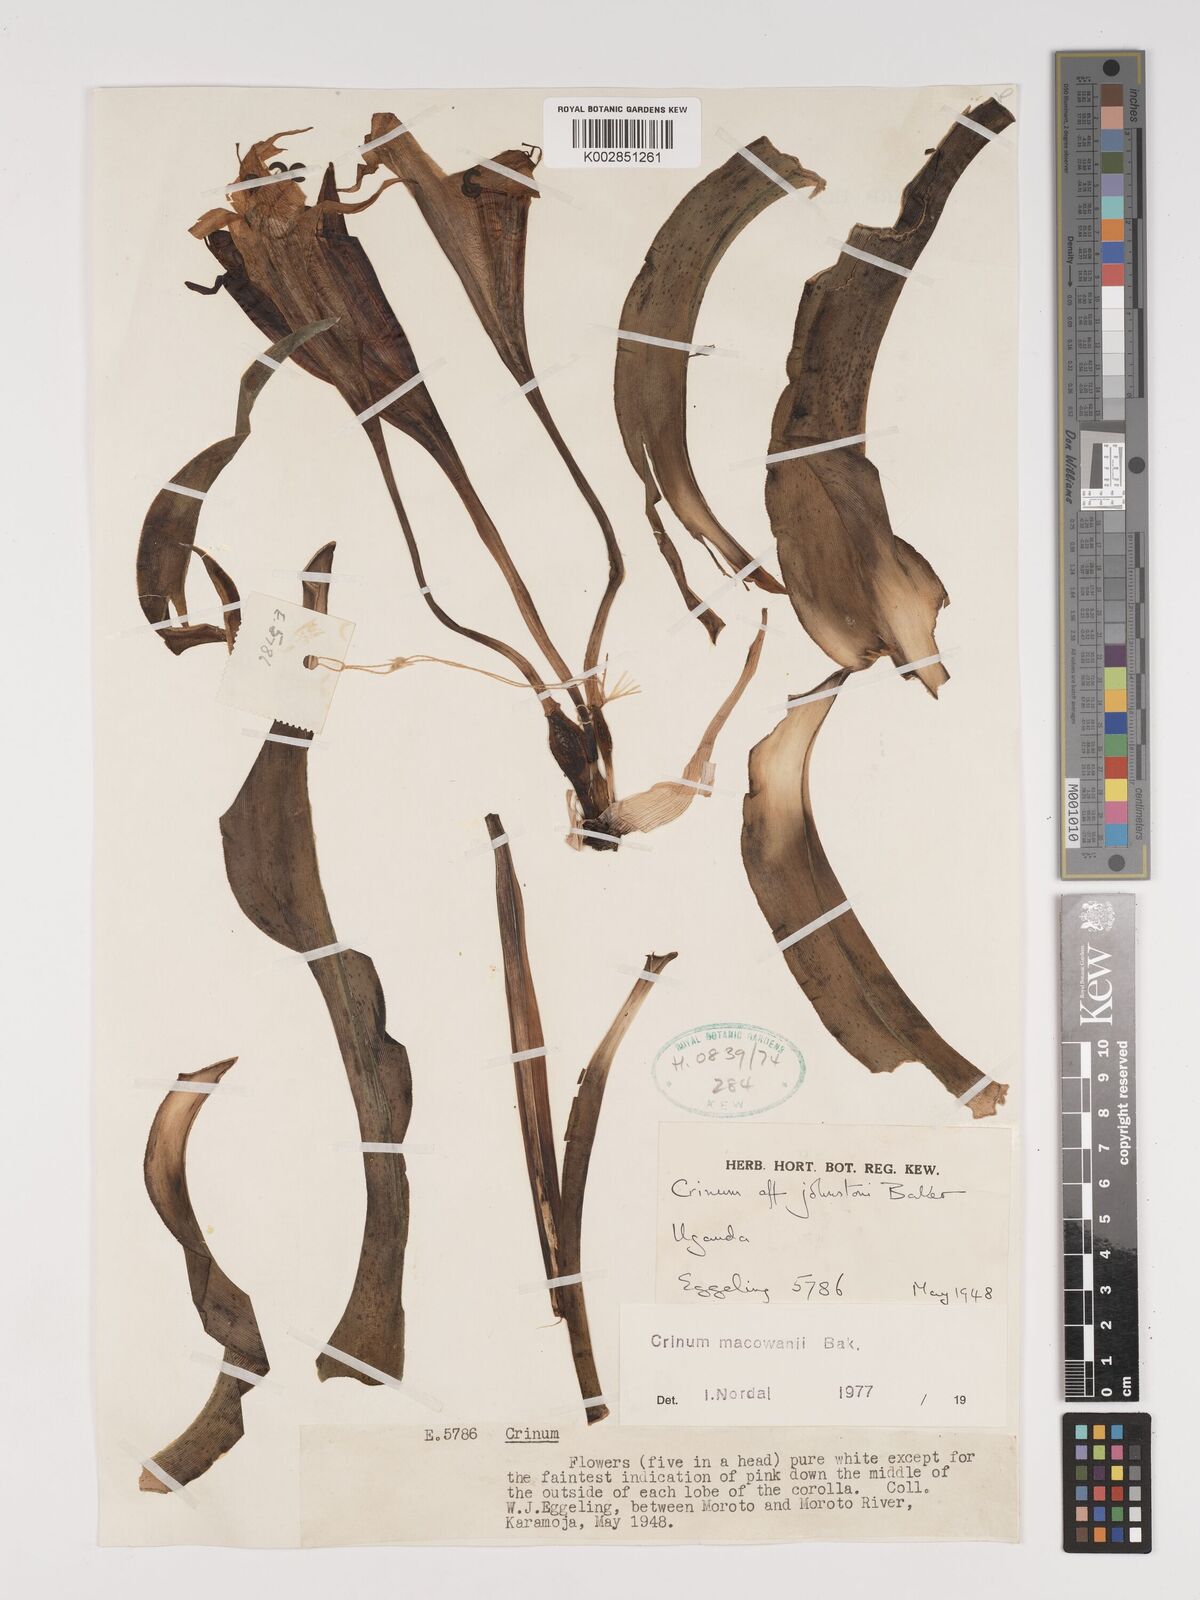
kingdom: Plantae
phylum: Tracheophyta
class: Liliopsida
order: Asparagales
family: Amaryllidaceae
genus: Crinum
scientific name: Crinum macowanii
